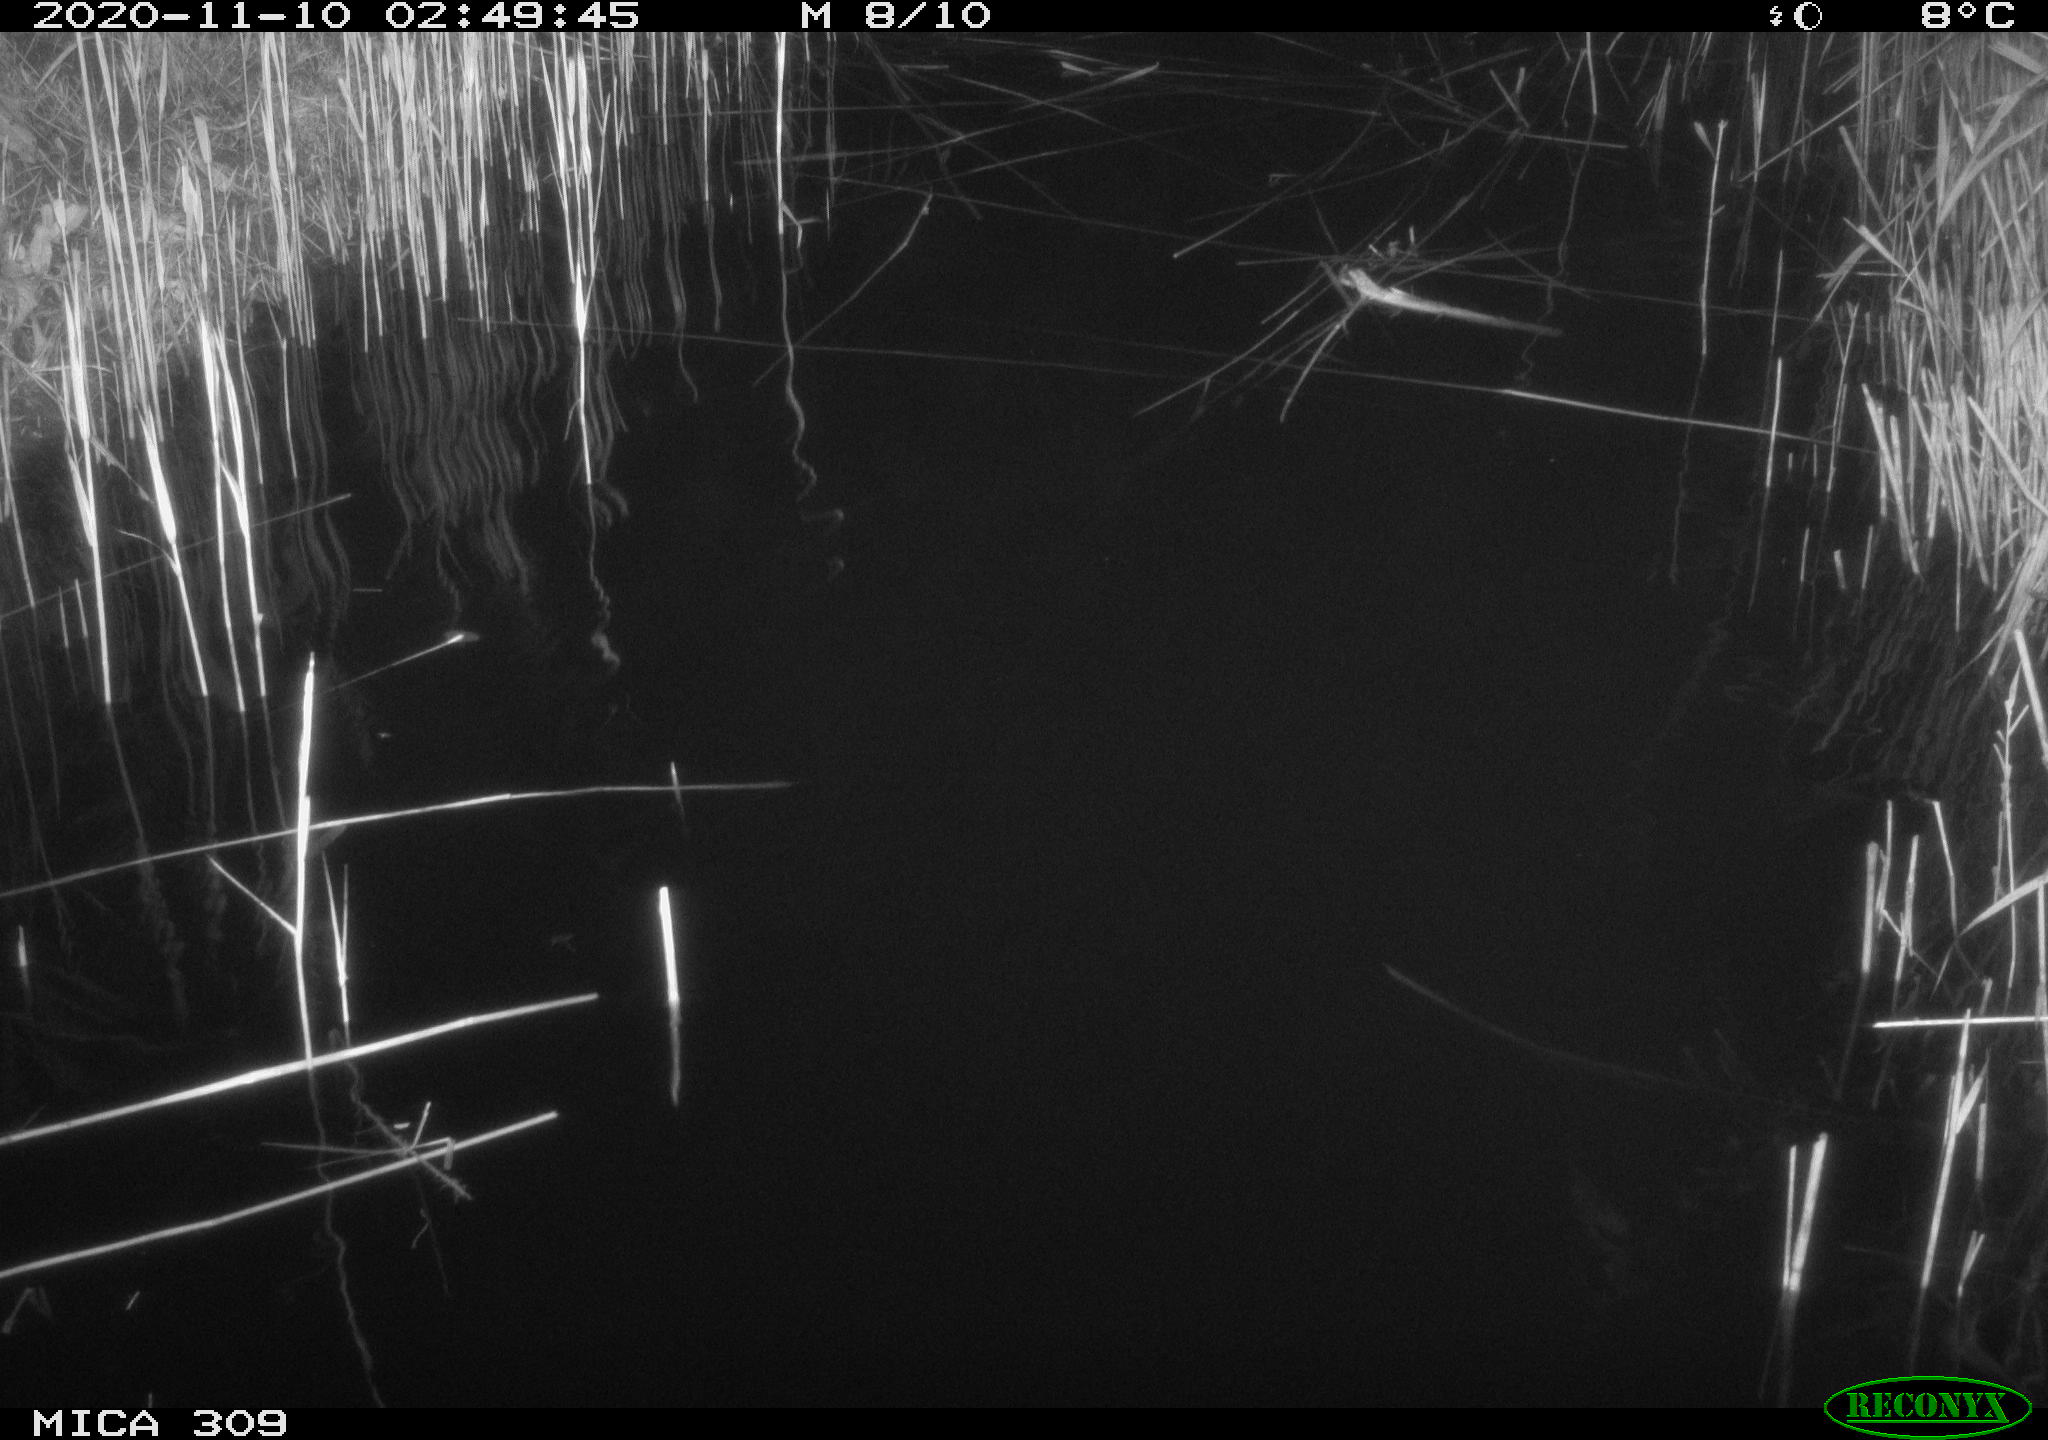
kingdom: Animalia
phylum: Chordata
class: Mammalia
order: Rodentia
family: Muridae
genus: Rattus
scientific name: Rattus norvegicus
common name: Brown rat
